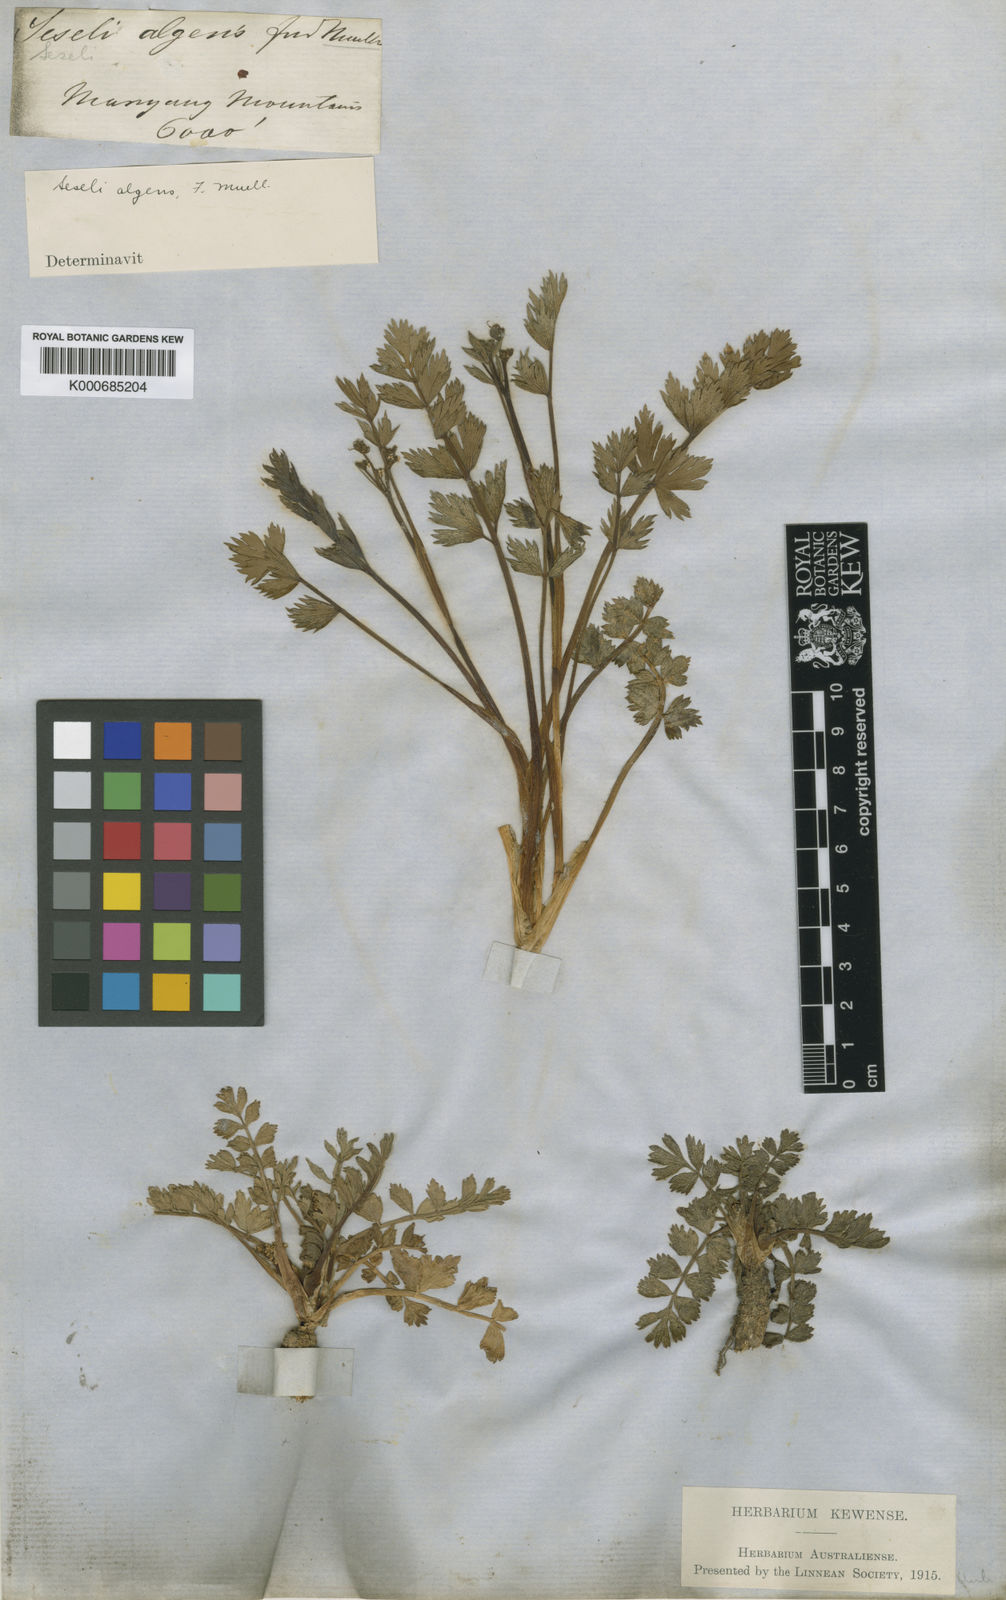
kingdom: Plantae
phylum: Tracheophyta
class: Magnoliopsida
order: Apiales
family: Apiaceae
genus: Gingidia
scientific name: Gingidia algens
